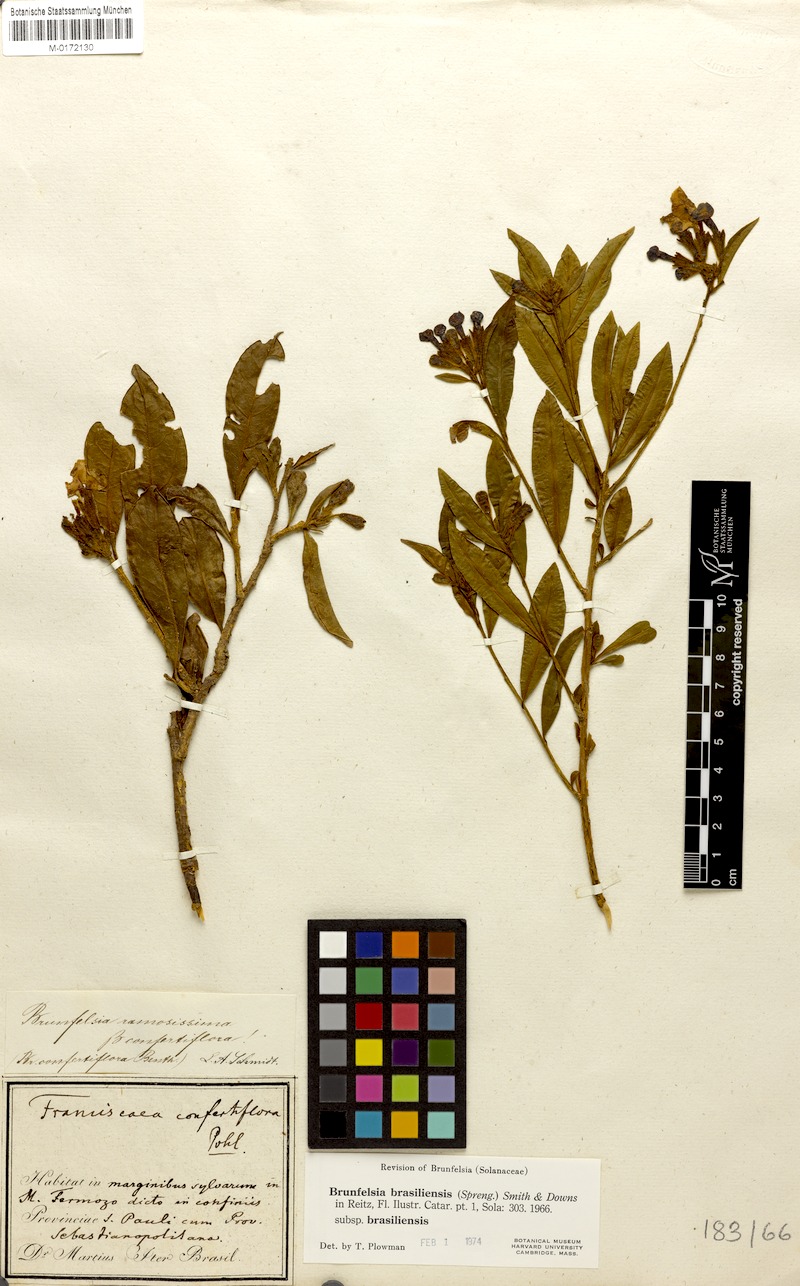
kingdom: Plantae
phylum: Tracheophyta
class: Magnoliopsida
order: Solanales
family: Solanaceae
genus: Brunfelsia
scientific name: Brunfelsia brasiliensis
